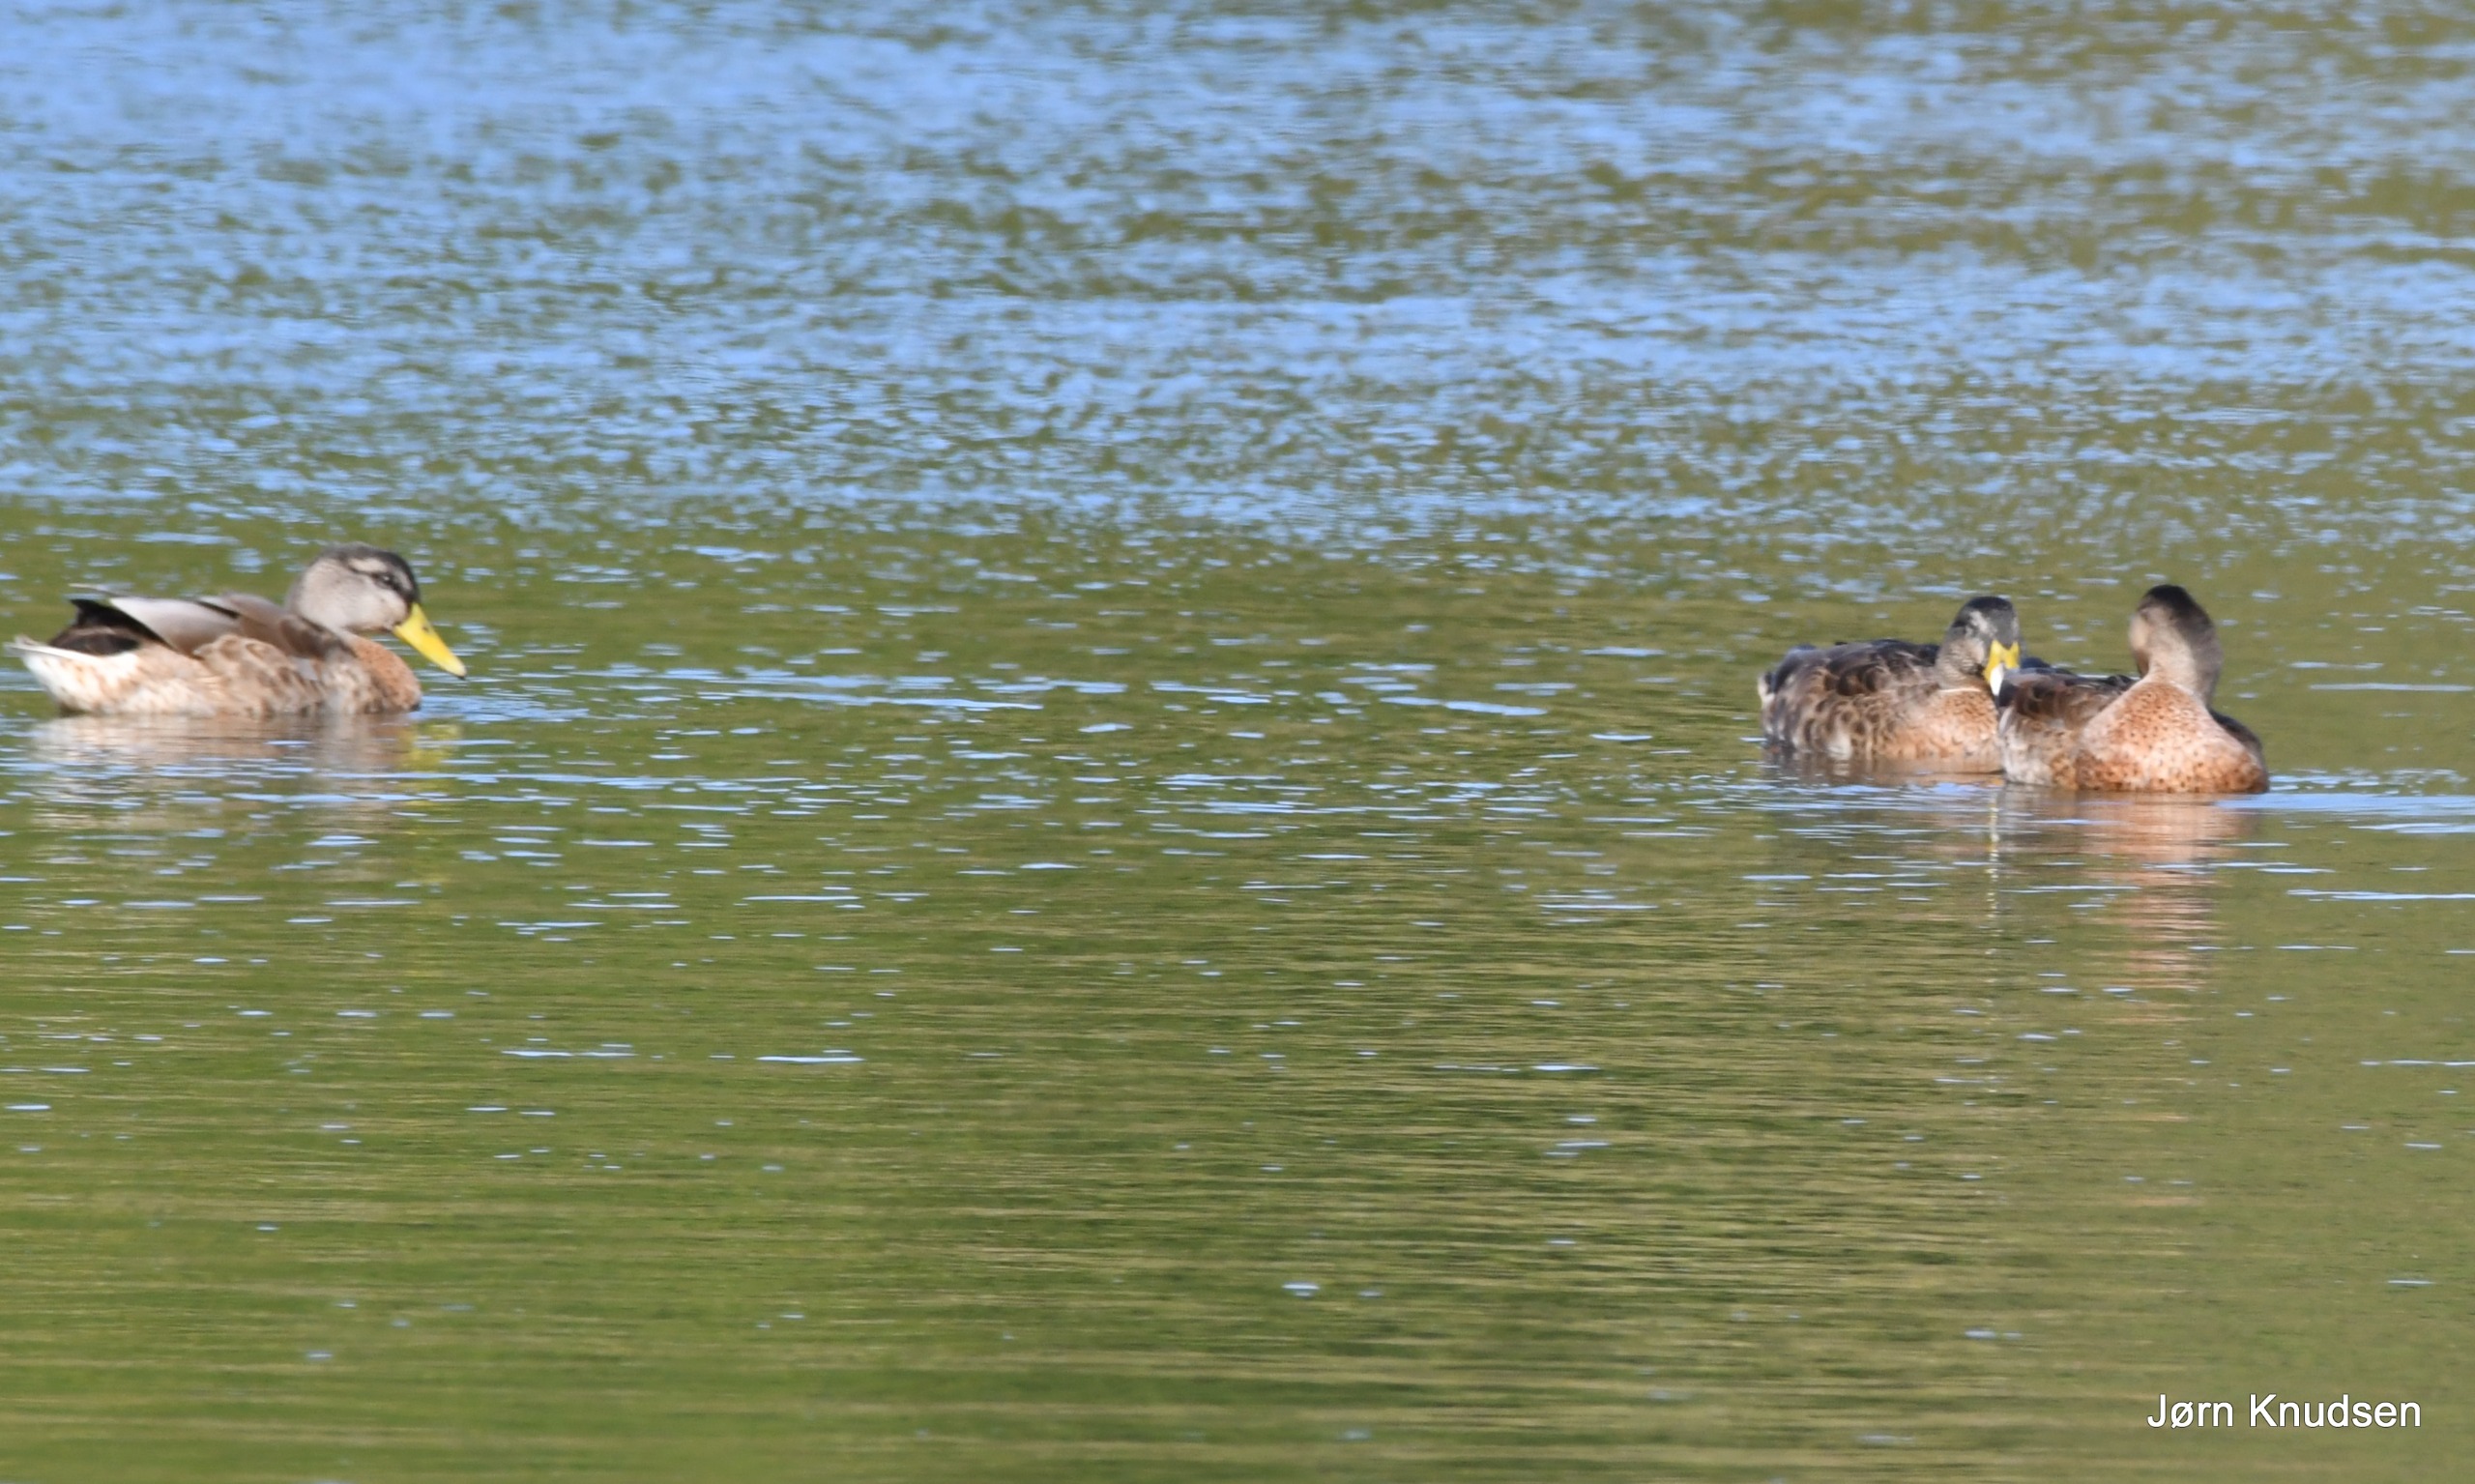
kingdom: Animalia
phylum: Chordata
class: Aves
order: Anseriformes
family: Anatidae
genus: Anas
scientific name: Anas platyrhynchos
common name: Gråand
